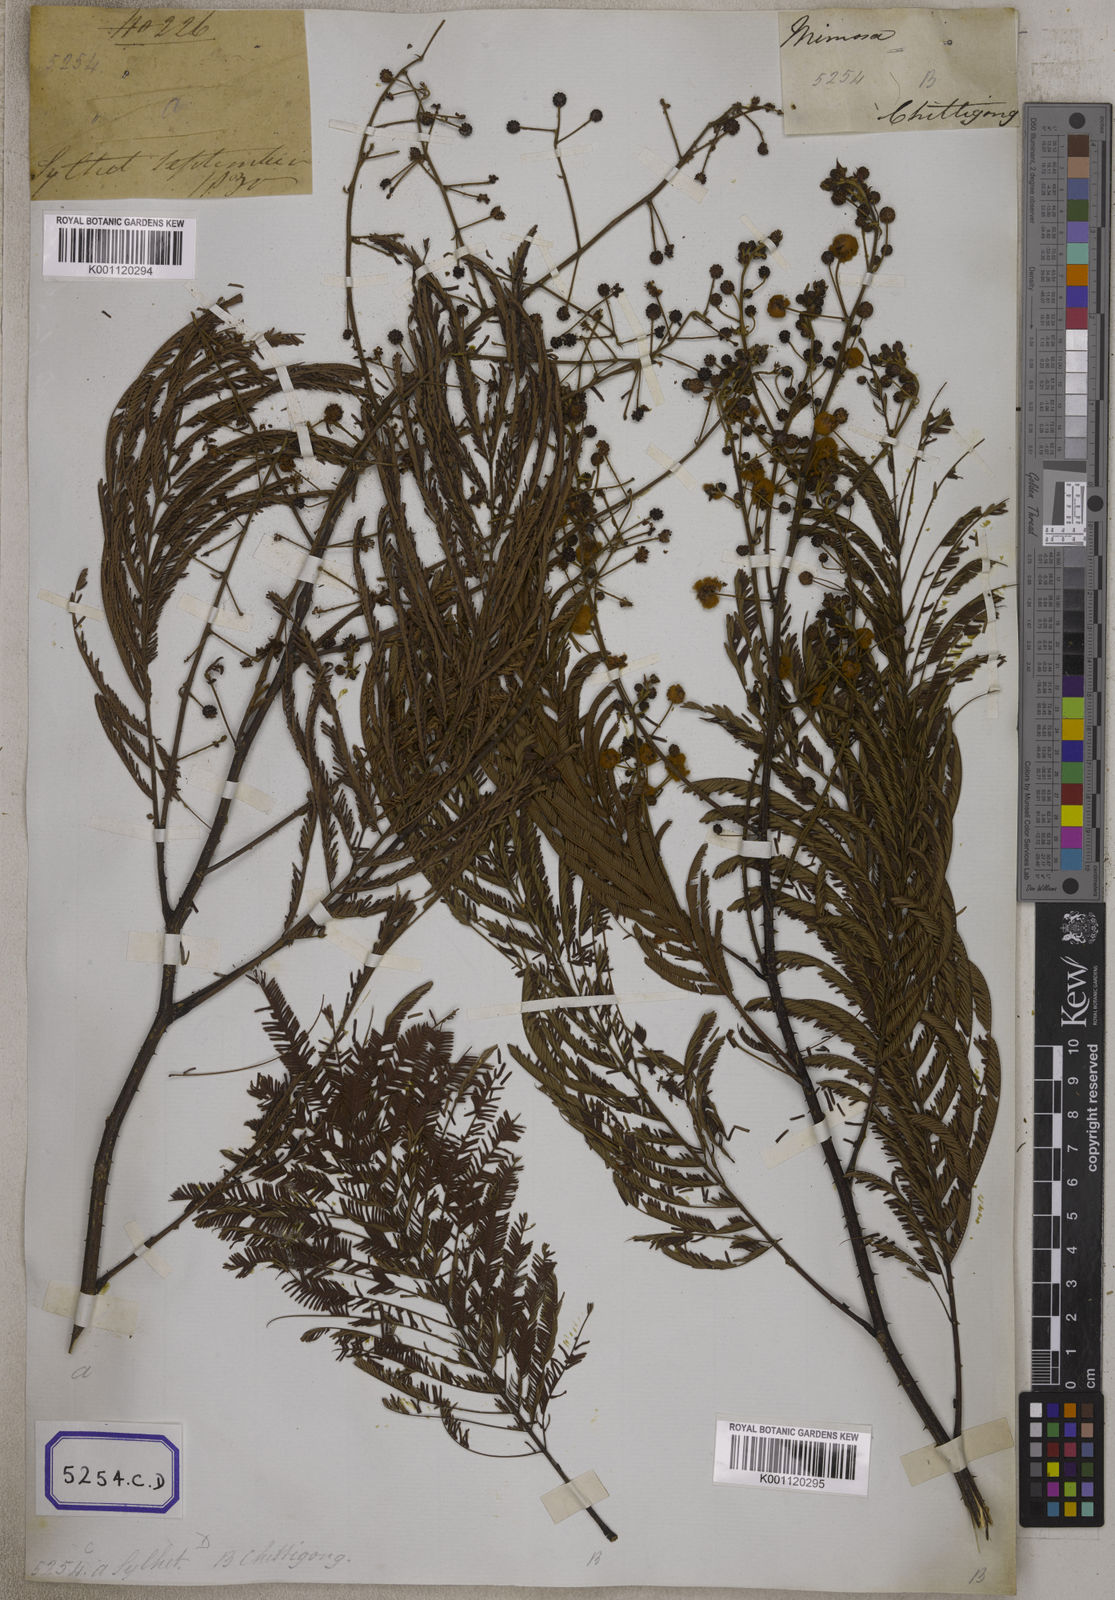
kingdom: Plantae
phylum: Tracheophyta
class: Magnoliopsida
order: Fabales
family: Fabaceae
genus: Senegalia
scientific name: Senegalia pennata
